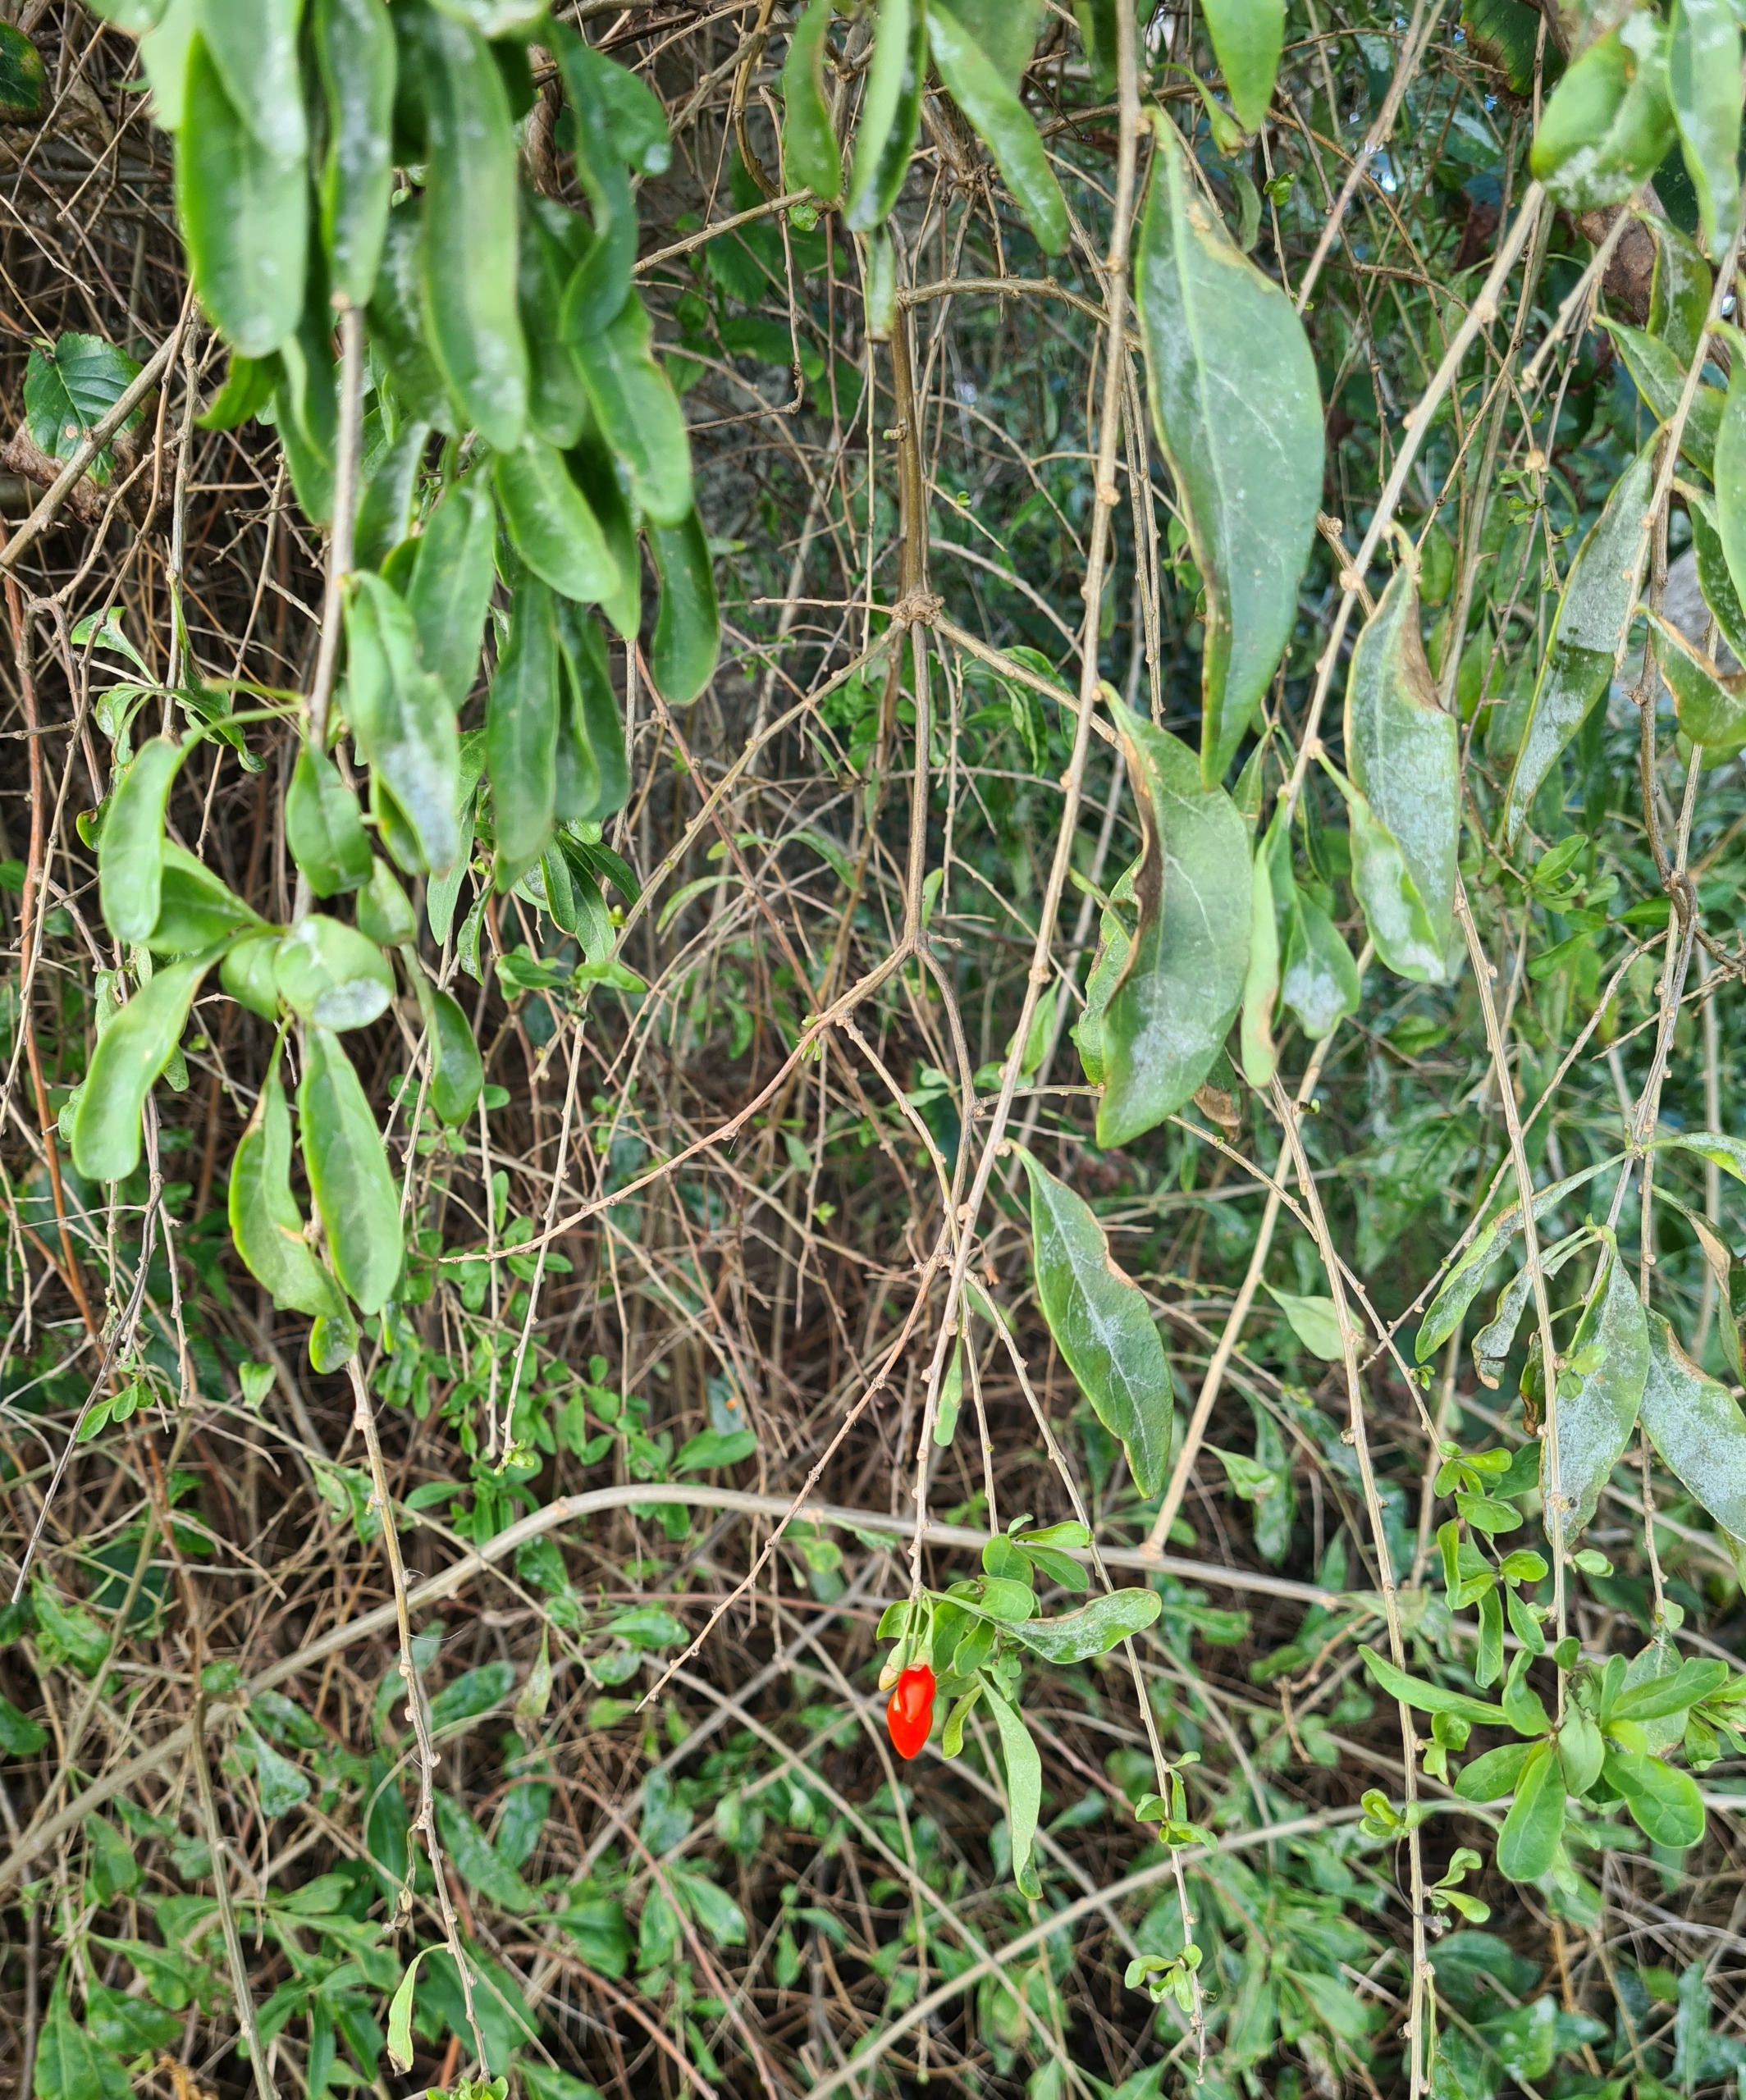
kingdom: Plantae
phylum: Tracheophyta
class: Magnoliopsida
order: Solanales
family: Solanaceae
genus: Lycium
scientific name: Lycium barbarum
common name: Bukketorn
